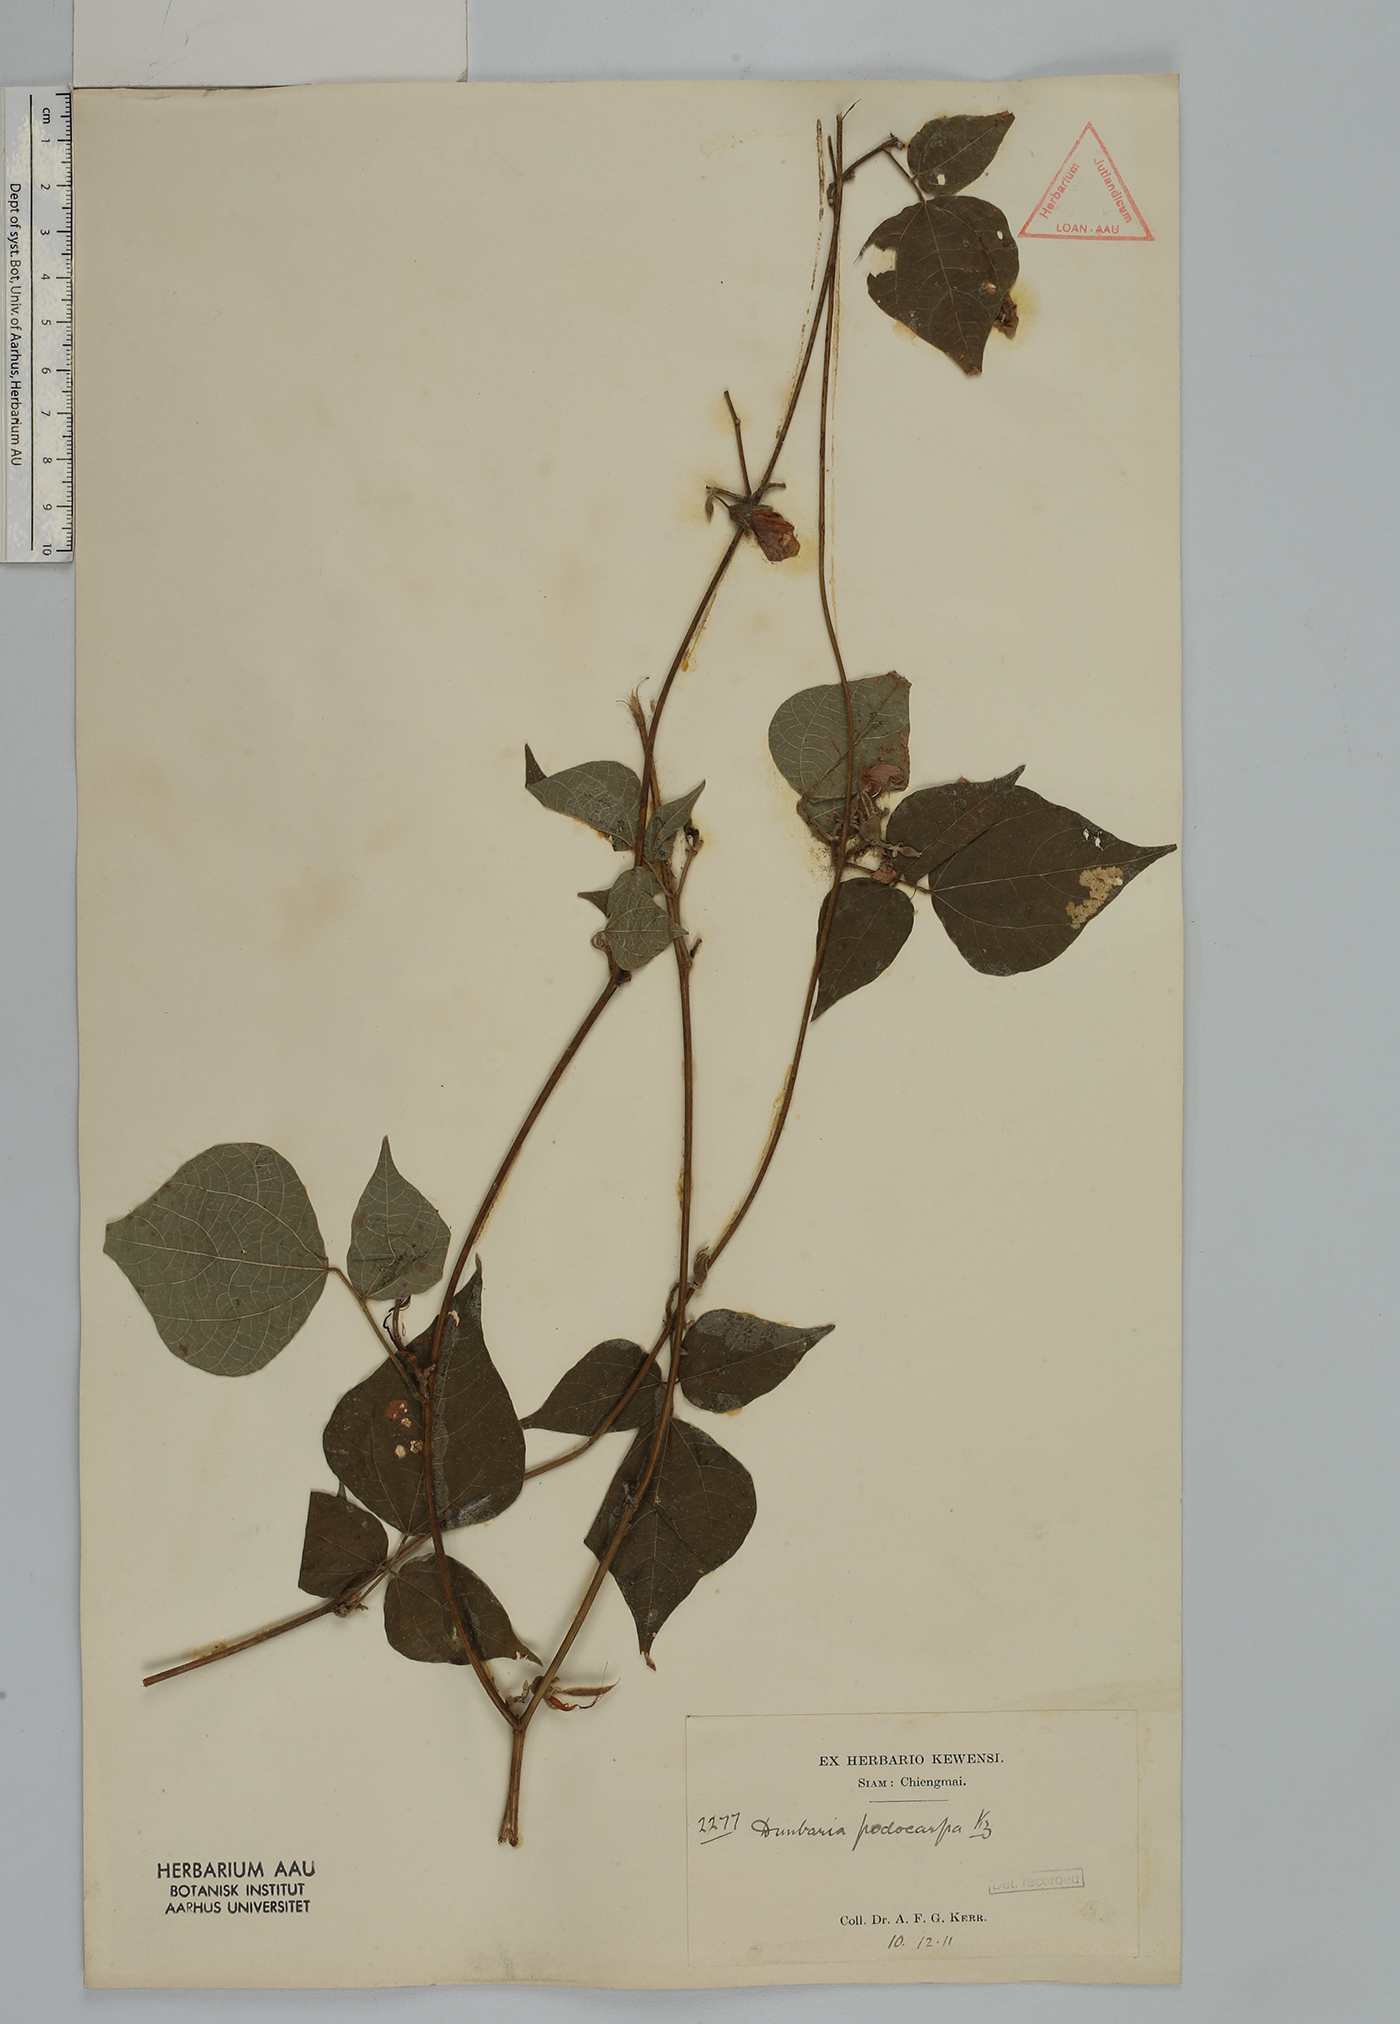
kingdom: Plantae
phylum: Tracheophyta
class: Magnoliopsida
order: Fabales
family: Fabaceae
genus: Dunbaria
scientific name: Dunbaria podocarpa
